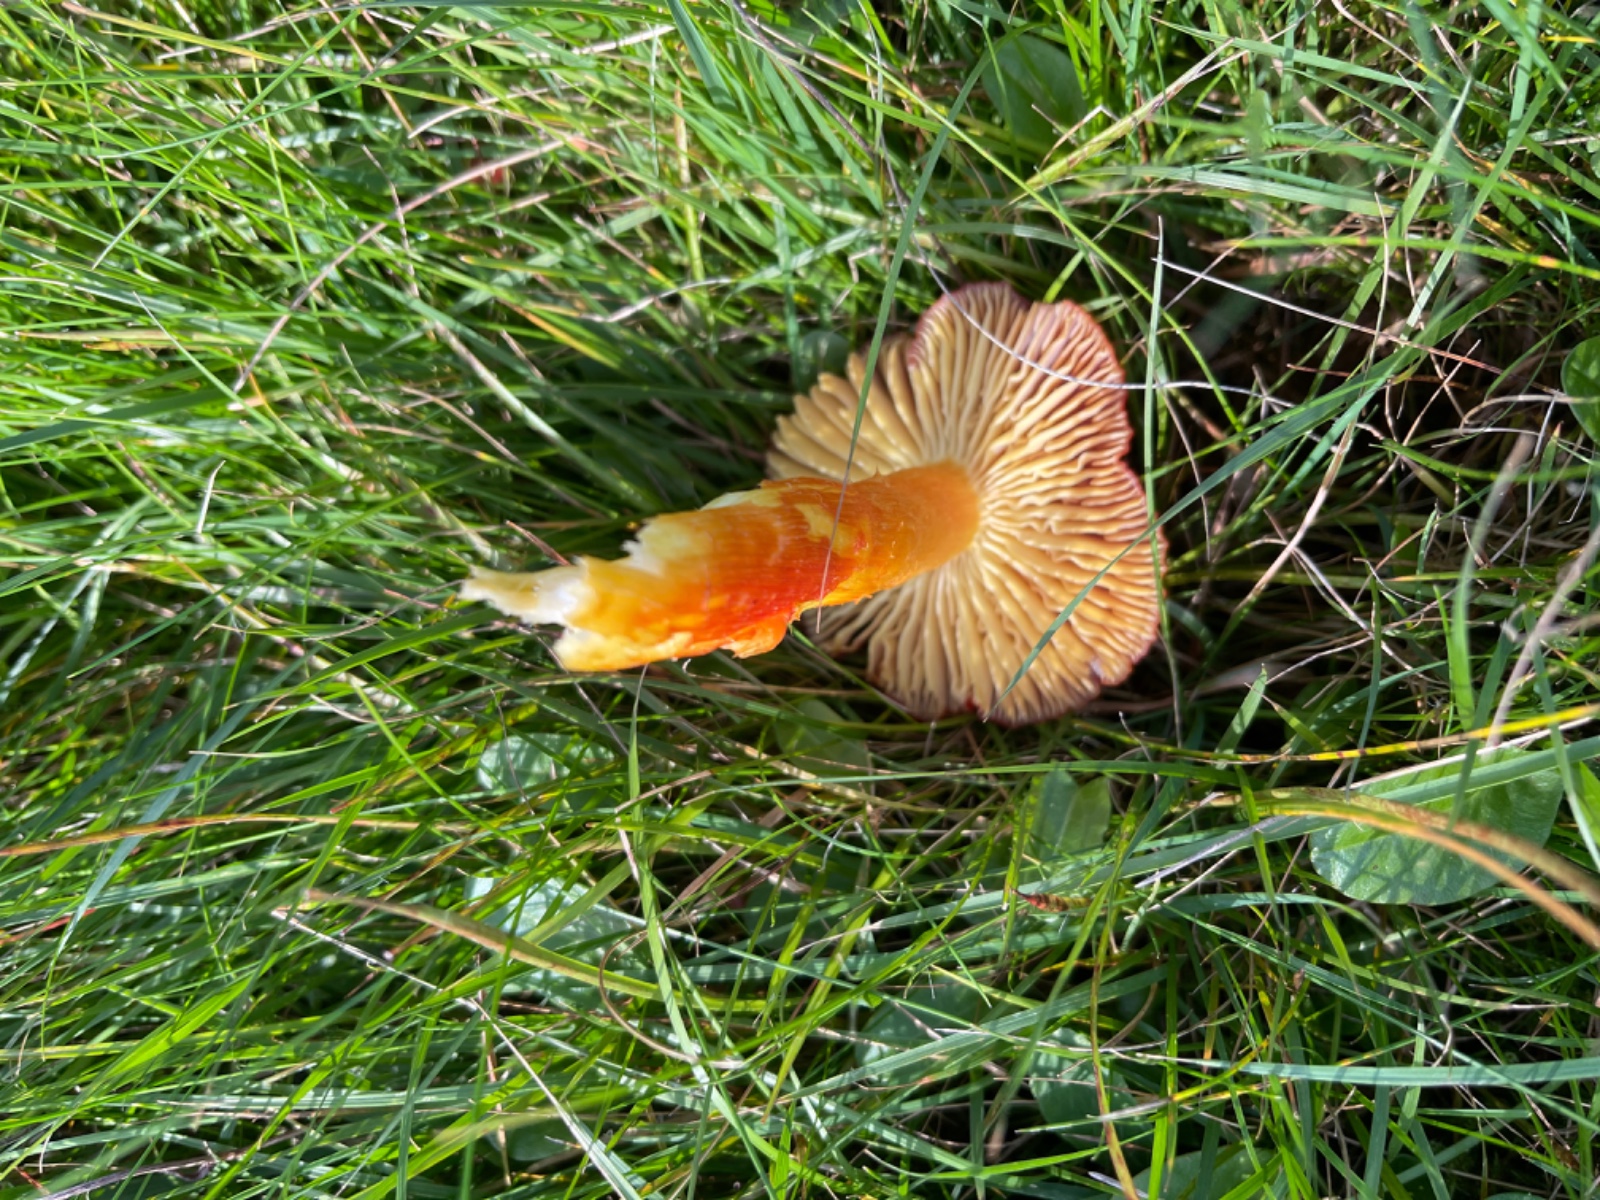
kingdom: Fungi
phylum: Basidiomycota
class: Agaricomycetes
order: Agaricales
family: Hygrophoraceae
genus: Hygrocybe
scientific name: Hygrocybe punicea
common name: skarlagen-vokshat
